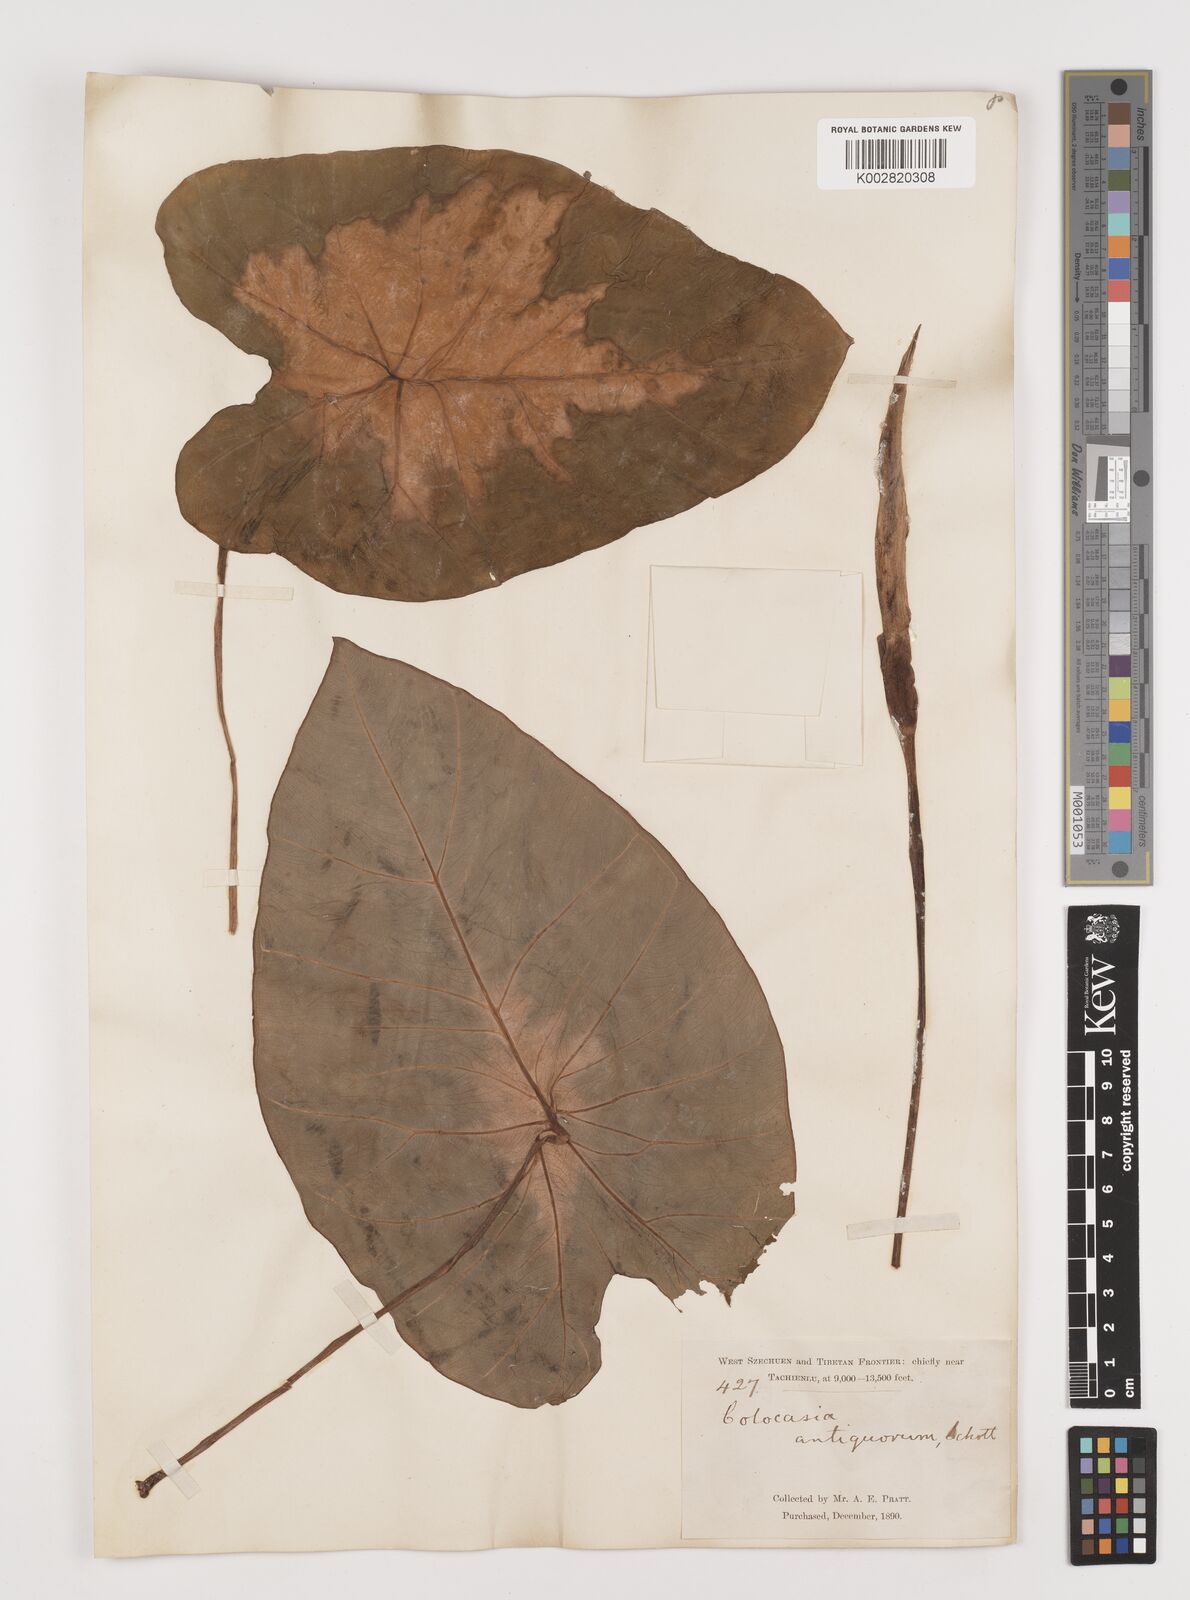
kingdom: Plantae
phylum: Tracheophyta
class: Liliopsida
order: Alismatales
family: Araceae
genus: Colocasia
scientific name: Colocasia esculenta
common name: Taro
